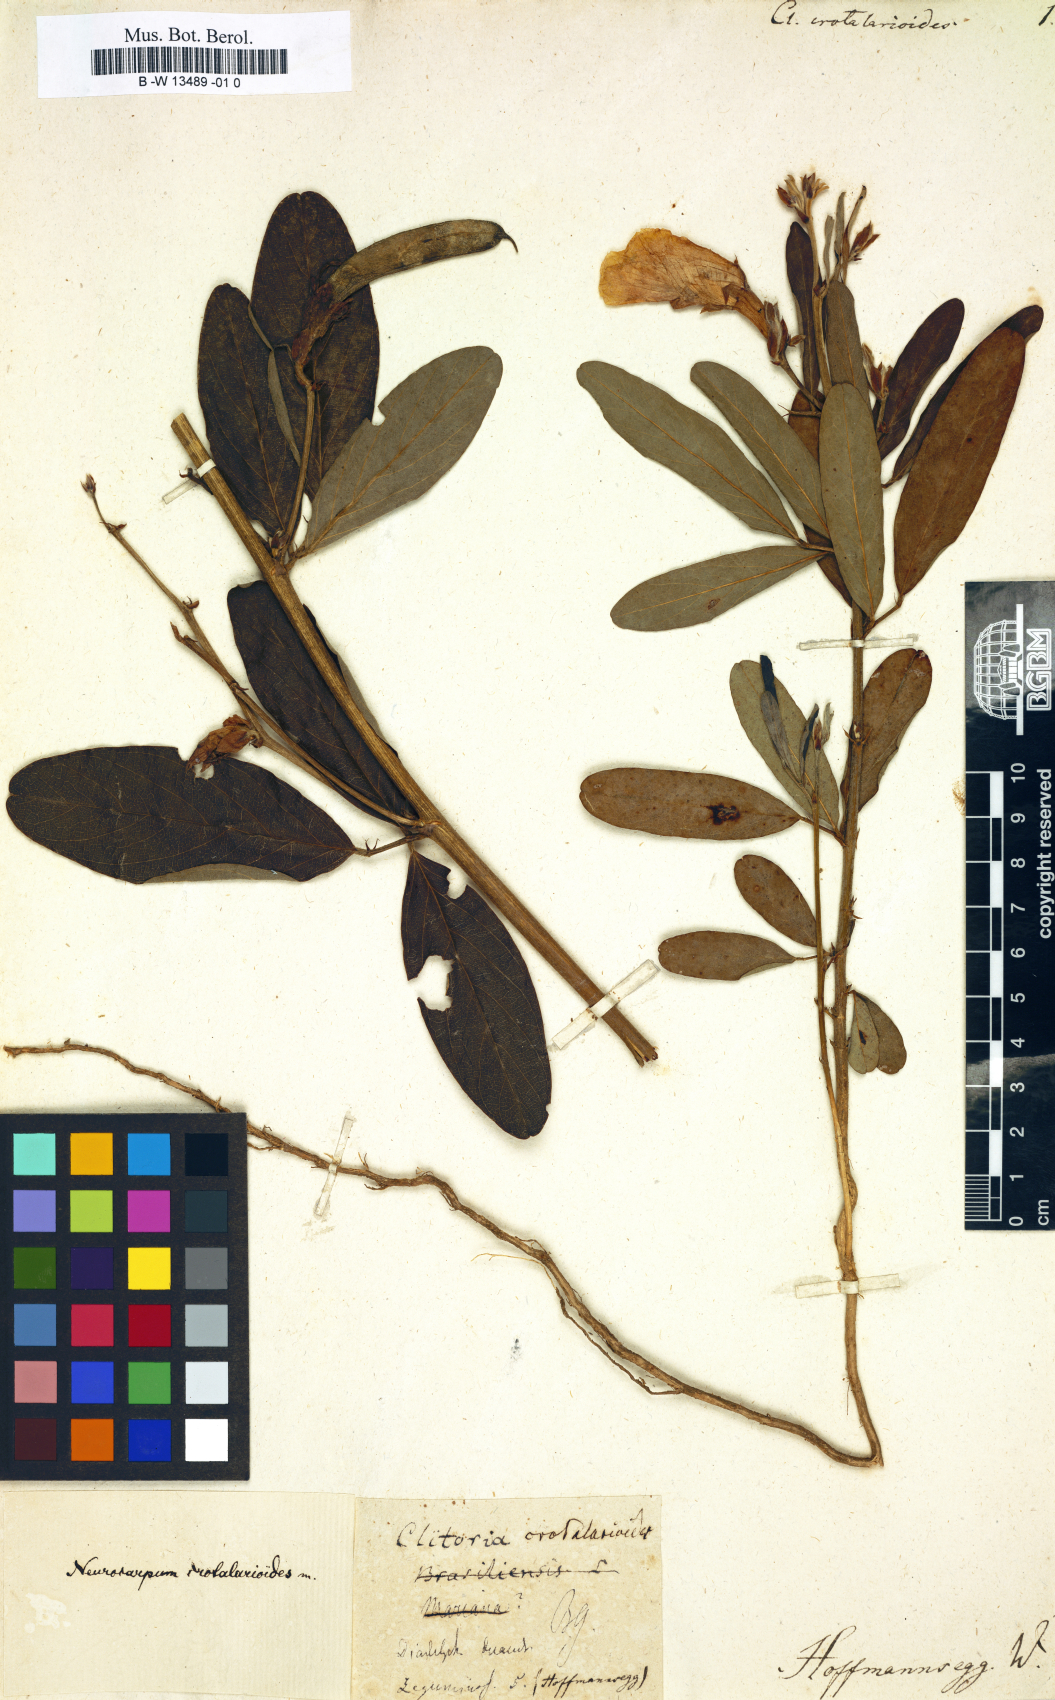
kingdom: Plantae
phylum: Tracheophyta
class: Magnoliopsida
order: Fabales
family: Fabaceae
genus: Clitoria
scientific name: Clitoria
